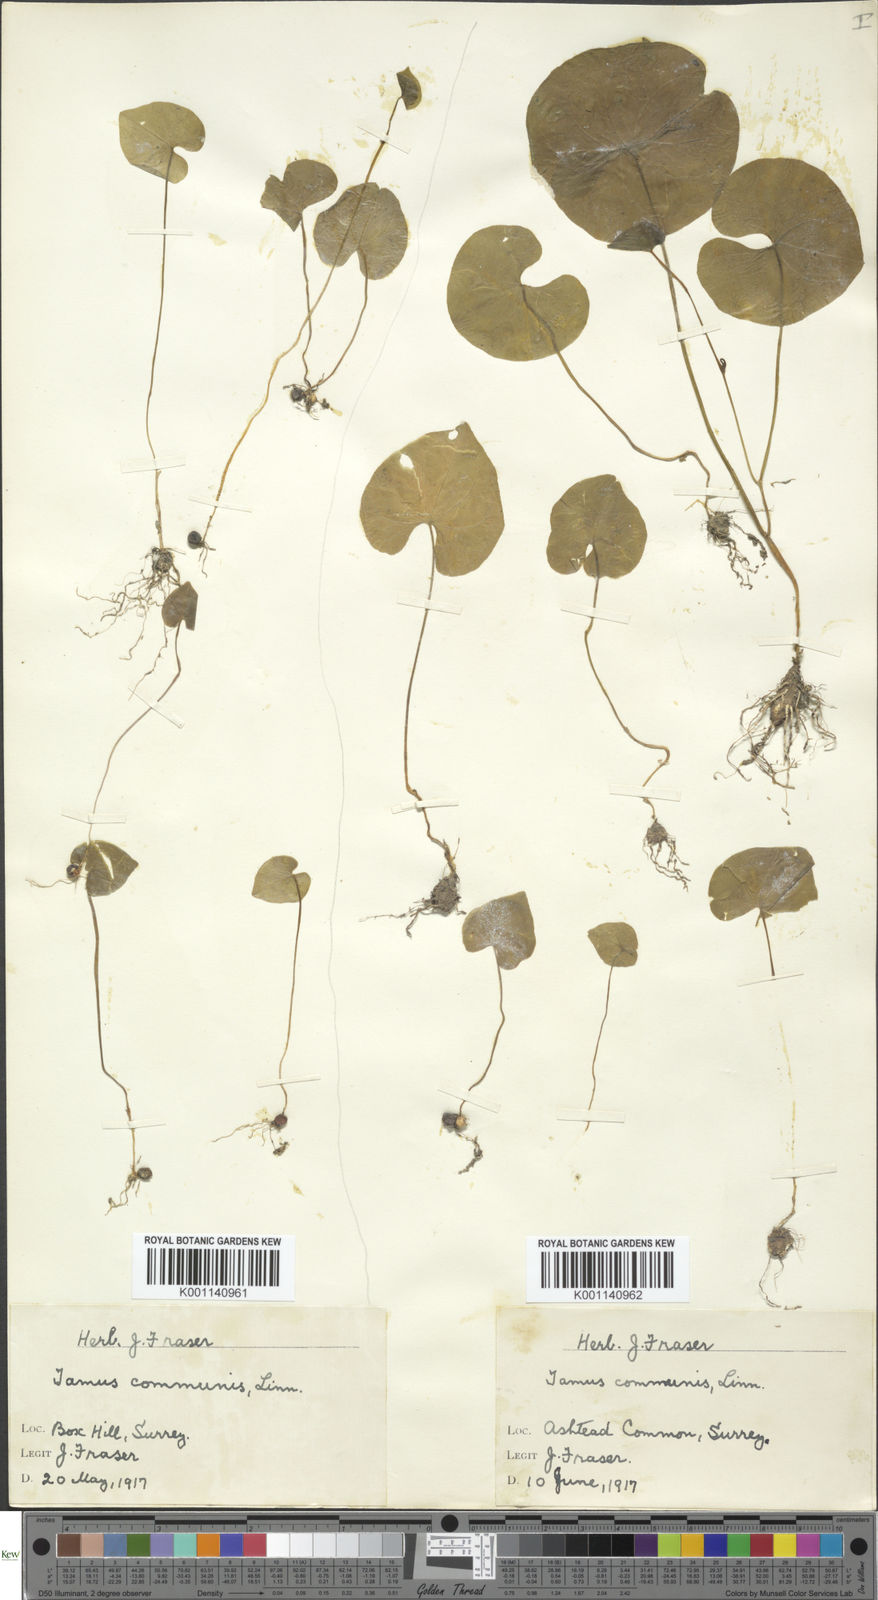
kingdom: Plantae
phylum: Tracheophyta
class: Liliopsida
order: Dioscoreales
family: Dioscoreaceae
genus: Dioscorea
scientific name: Dioscorea communis
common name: Black-bindweed
